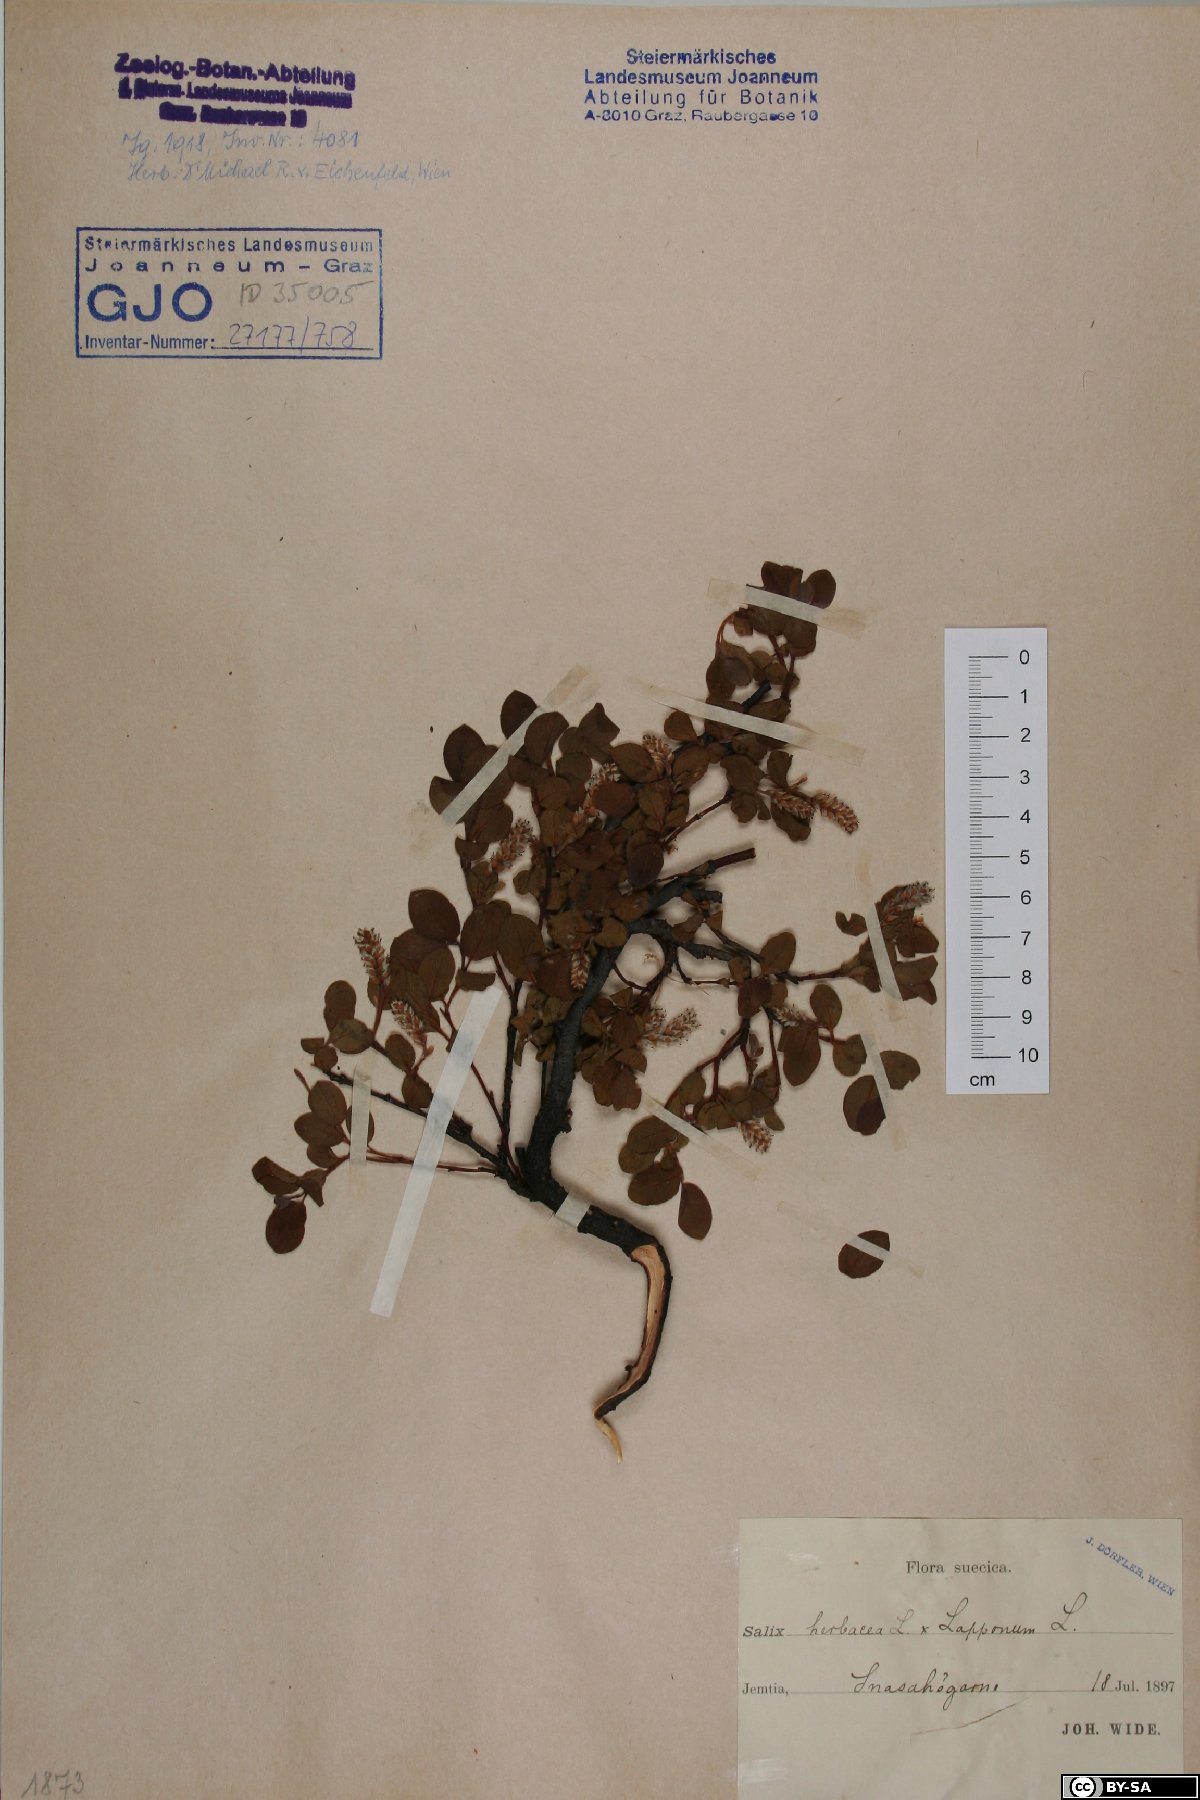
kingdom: Plantae
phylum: Tracheophyta
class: Magnoliopsida
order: Malpighiales
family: Salicaceae
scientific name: Salicaceae
